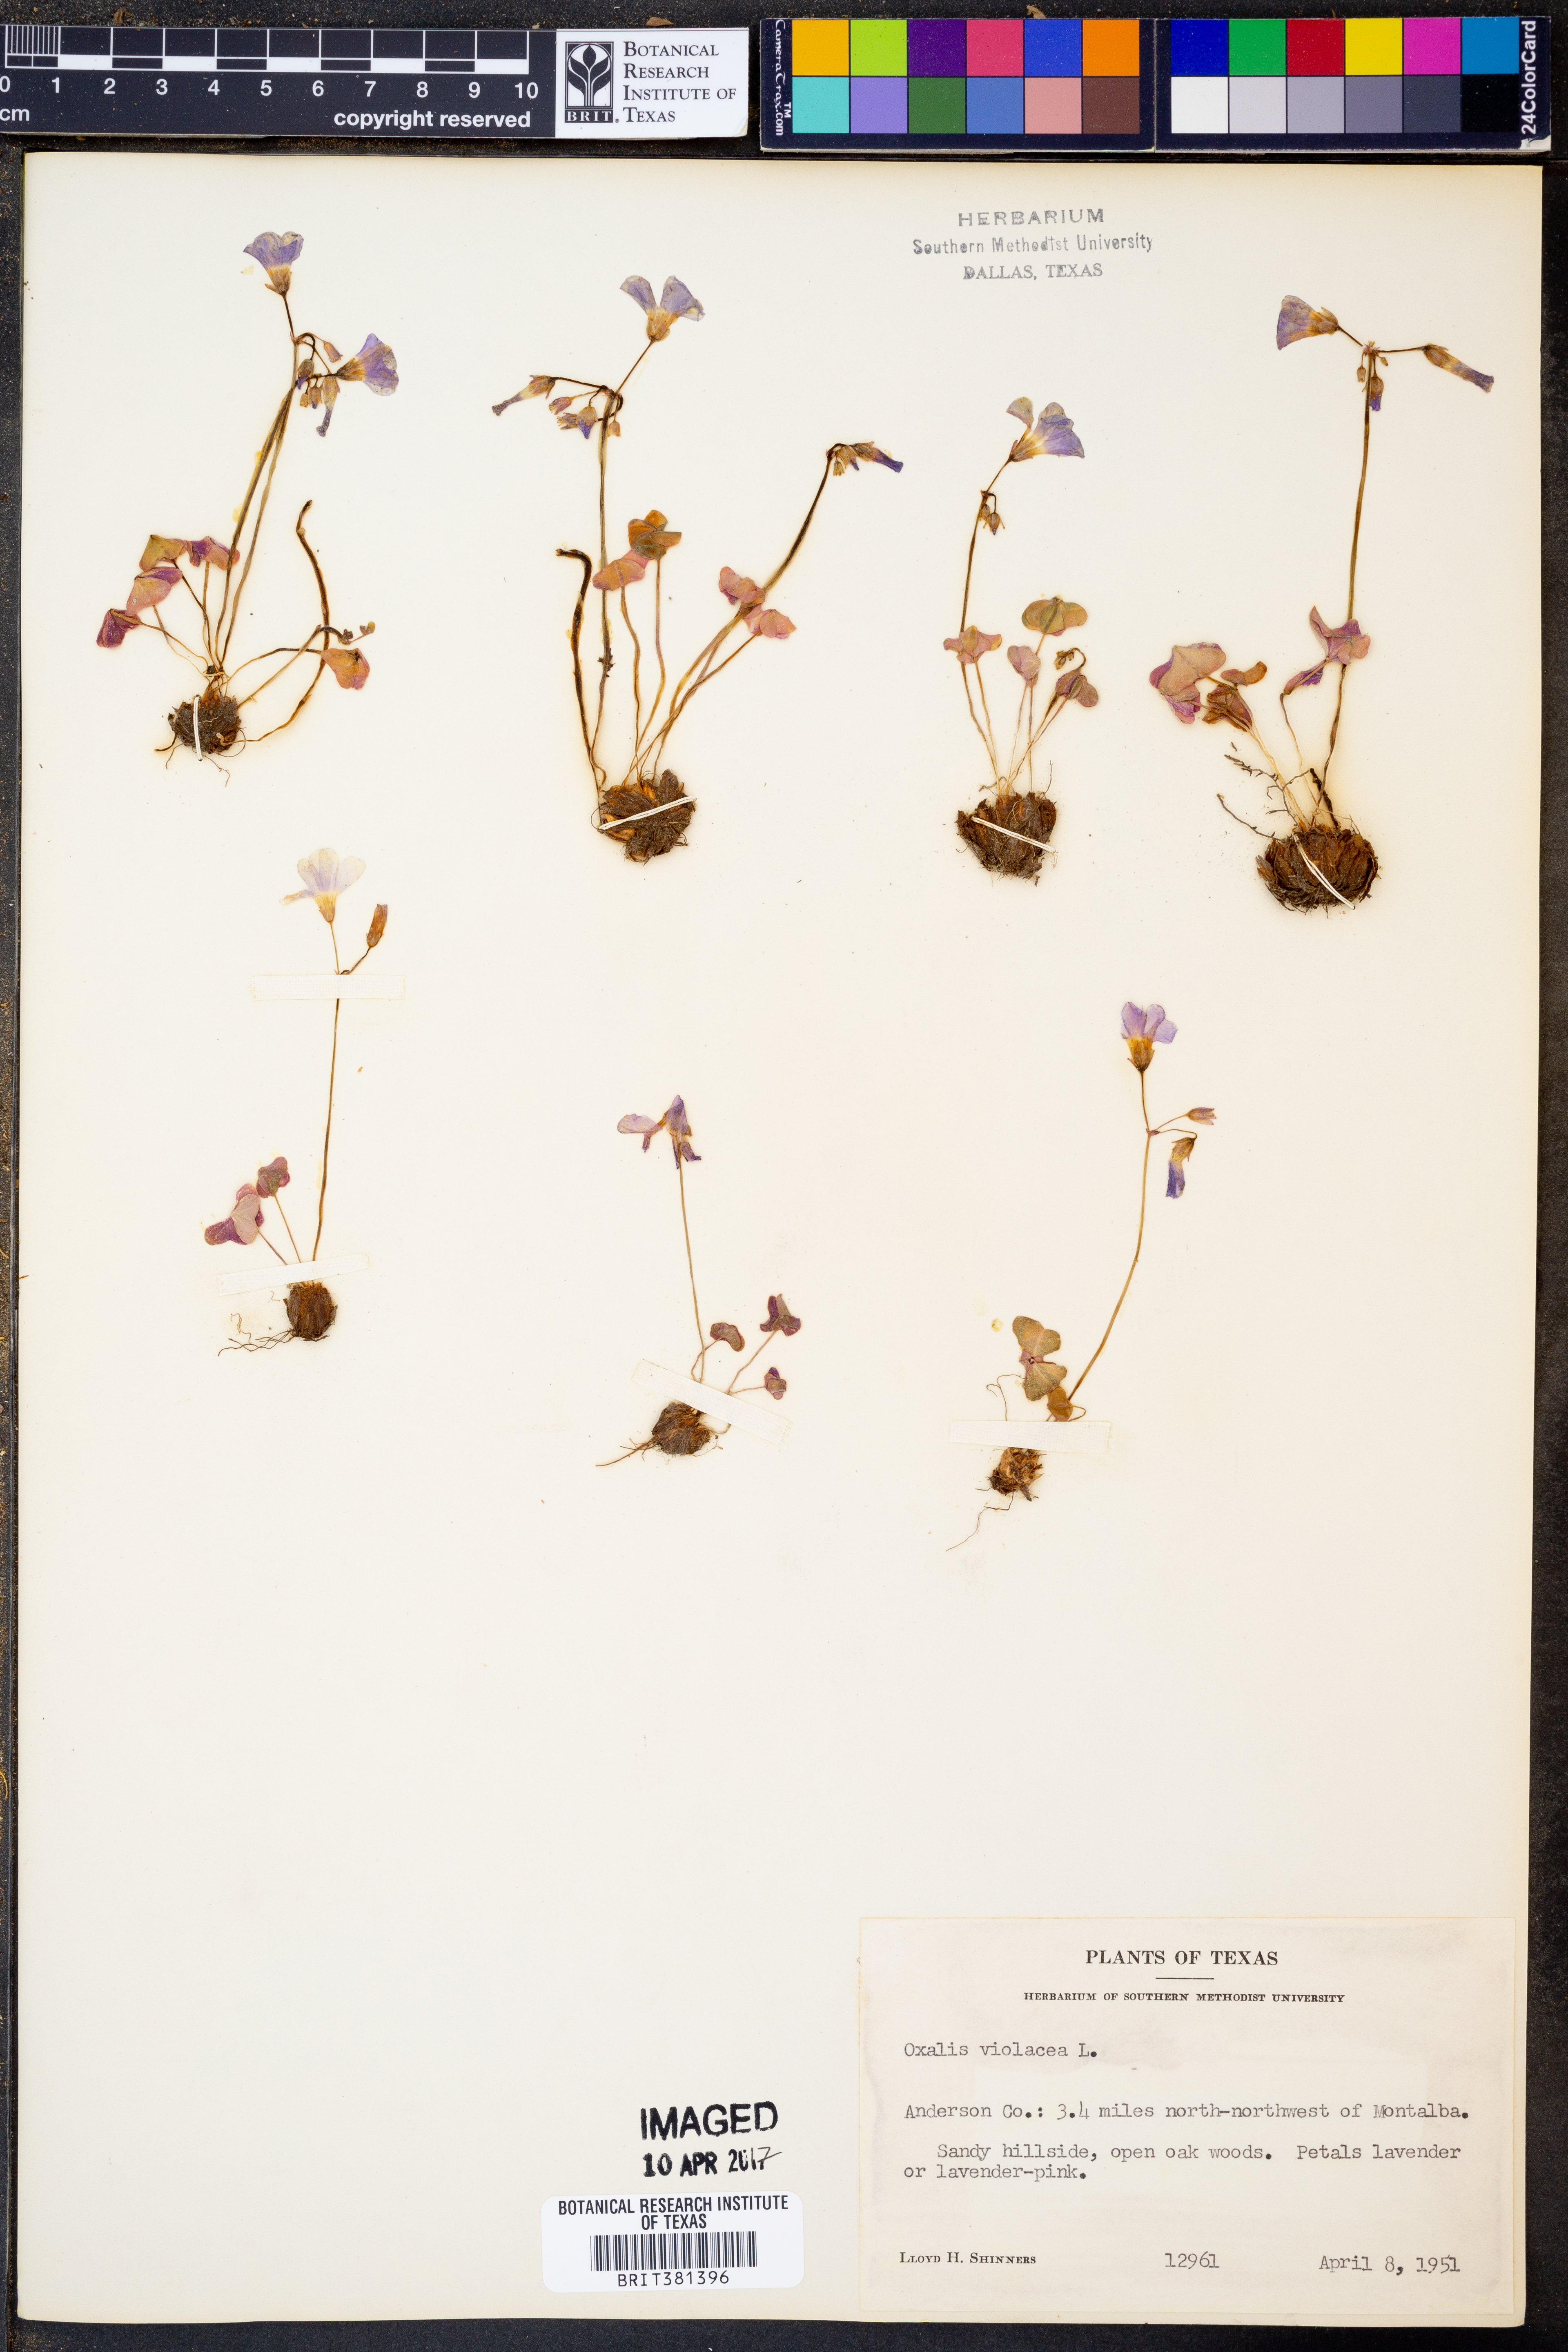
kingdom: Plantae
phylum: Tracheophyta
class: Magnoliopsida
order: Oxalidales
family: Oxalidaceae
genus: Oxalis
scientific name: Oxalis violacea
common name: Violet wood-sorrel
